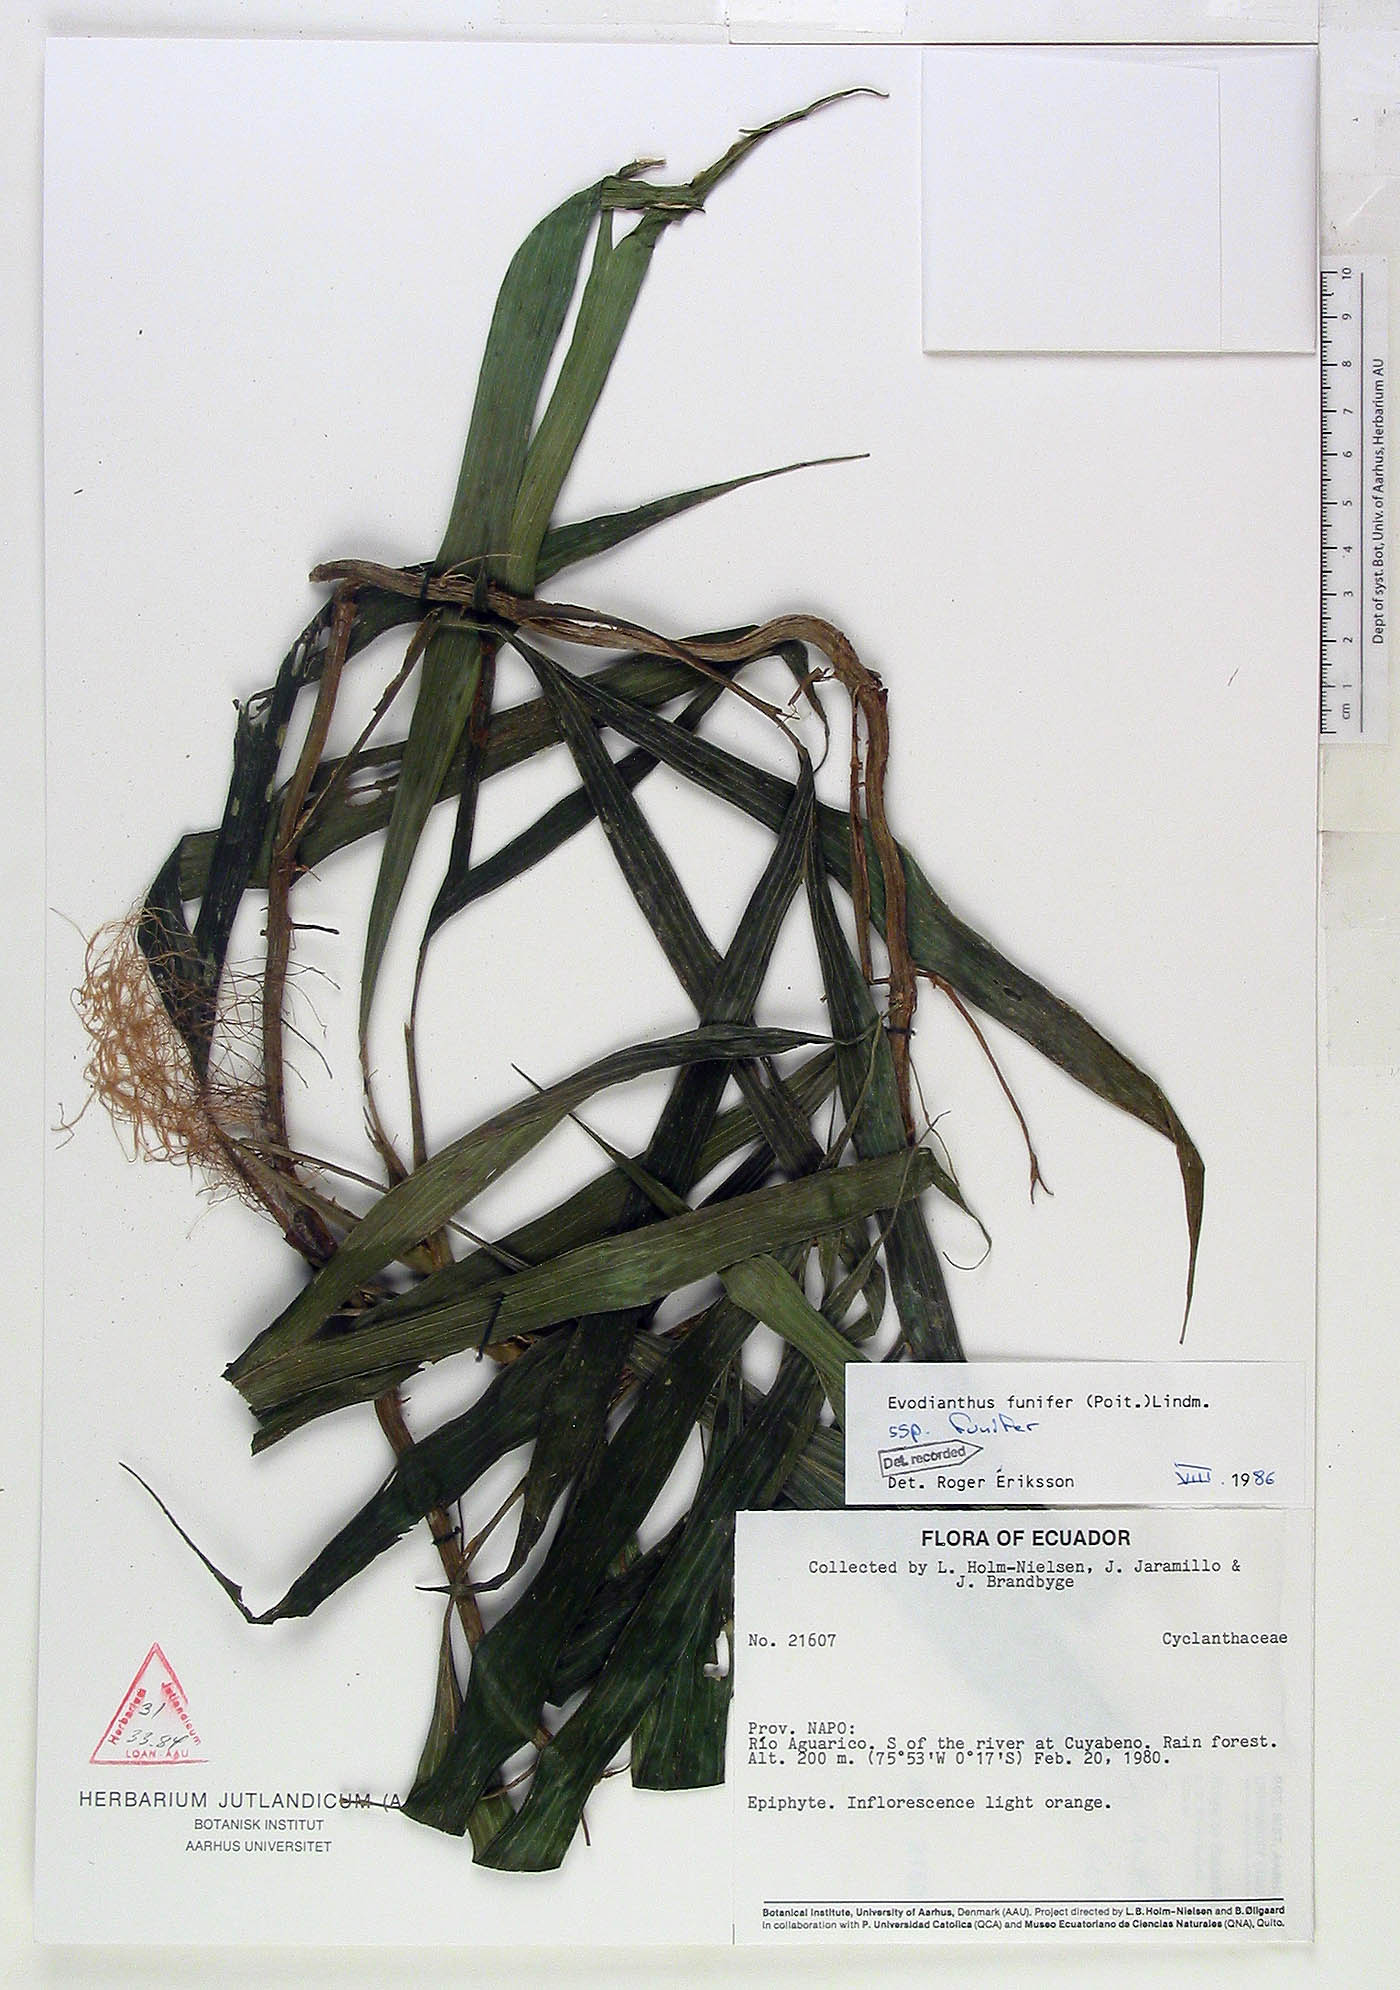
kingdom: Plantae
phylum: Tracheophyta
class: Liliopsida
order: Pandanales
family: Cyclanthaceae
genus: Evodianthus
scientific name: Evodianthus funifer
